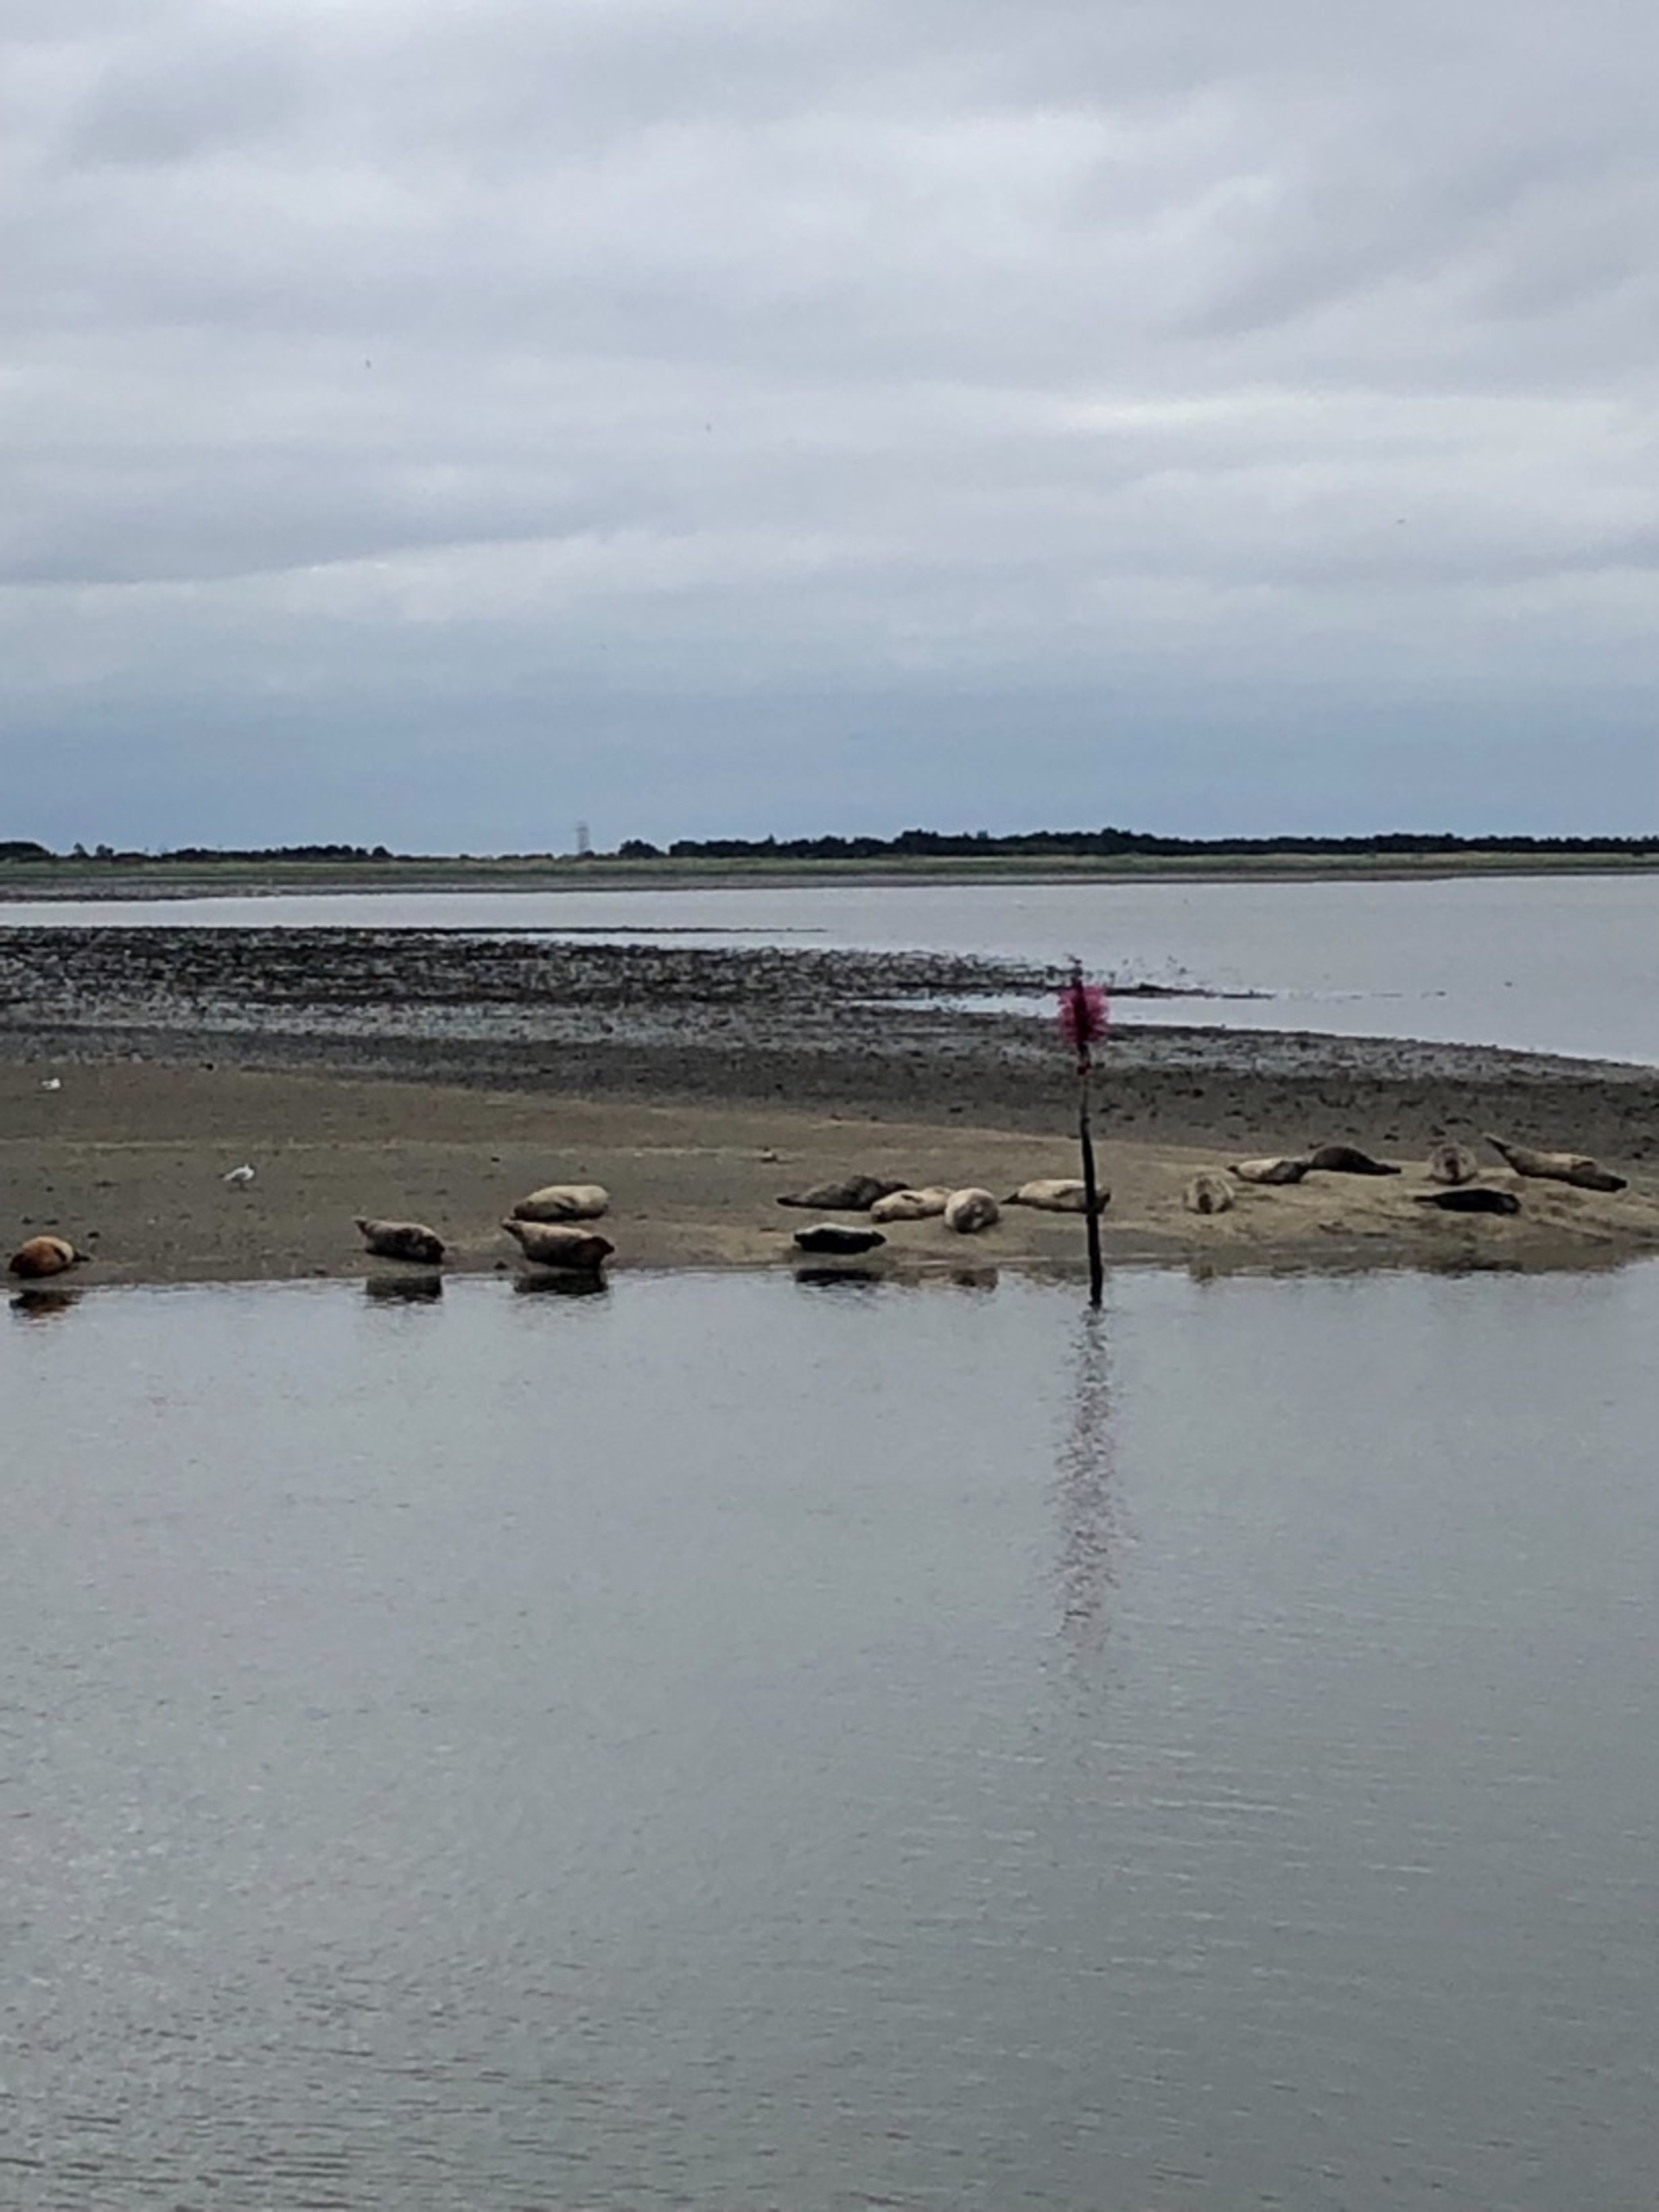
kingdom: Animalia
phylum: Chordata
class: Mammalia
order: Carnivora
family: Phocidae
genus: Phoca
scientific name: Phoca vitulina
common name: Spættet sæl
